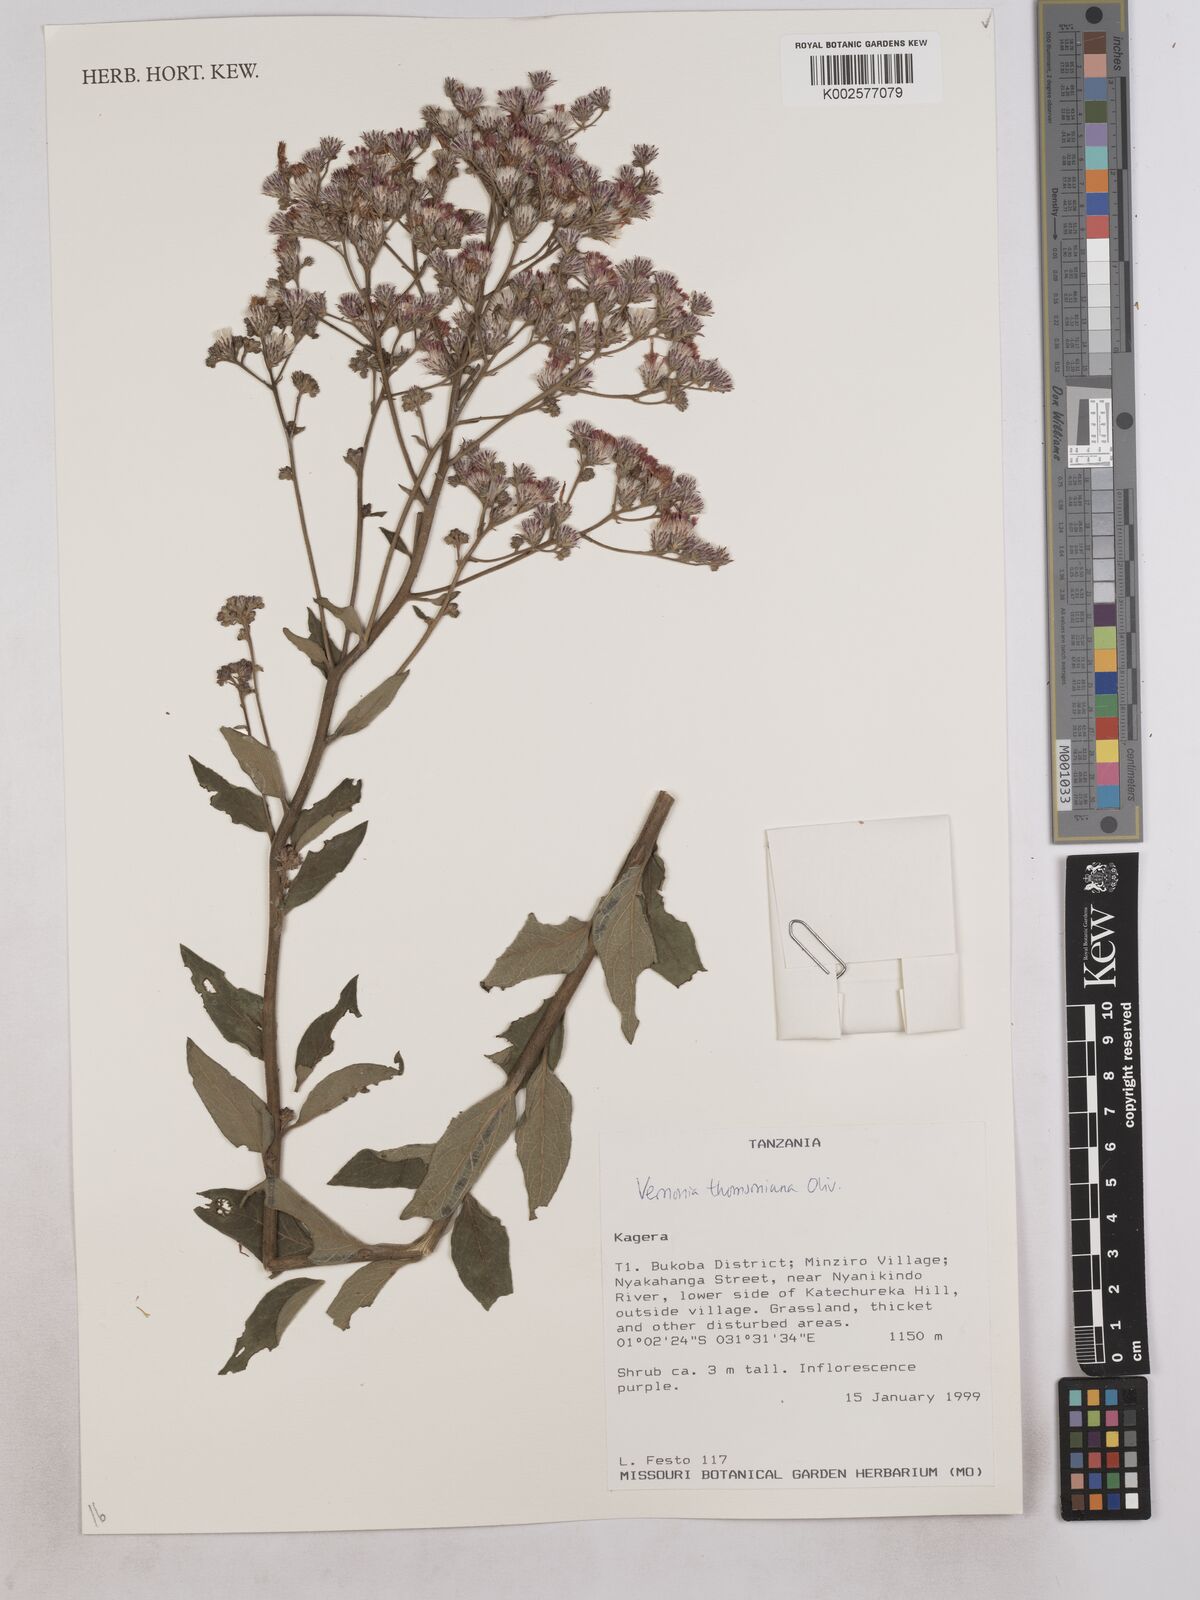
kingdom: Plantae
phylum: Tracheophyta
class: Magnoliopsida
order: Asterales
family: Asteraceae
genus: Gymnanthemum
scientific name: Gymnanthemum thomsonianum
